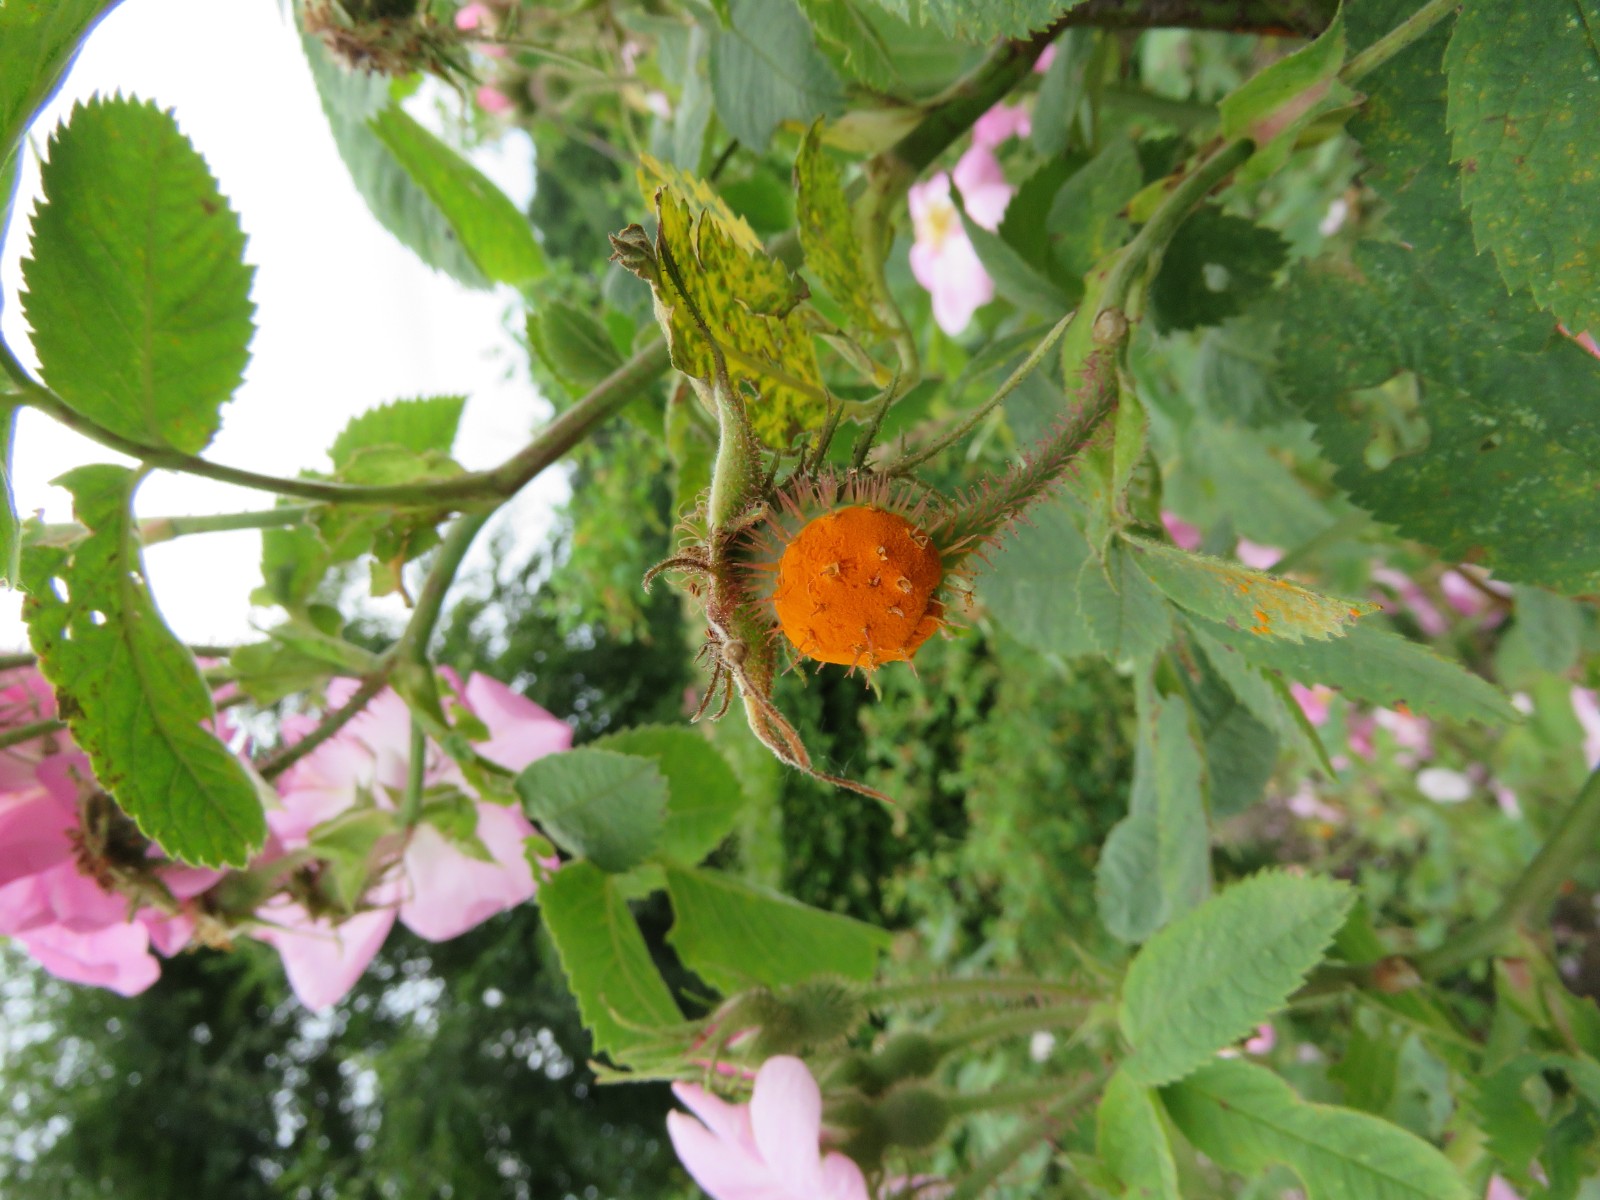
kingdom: Fungi
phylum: Basidiomycota
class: Pucciniomycetes
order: Pucciniales
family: Phragmidiaceae
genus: Phragmidium
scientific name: Phragmidium rosae-pimpinellifoliae
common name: Burnet rose rust
